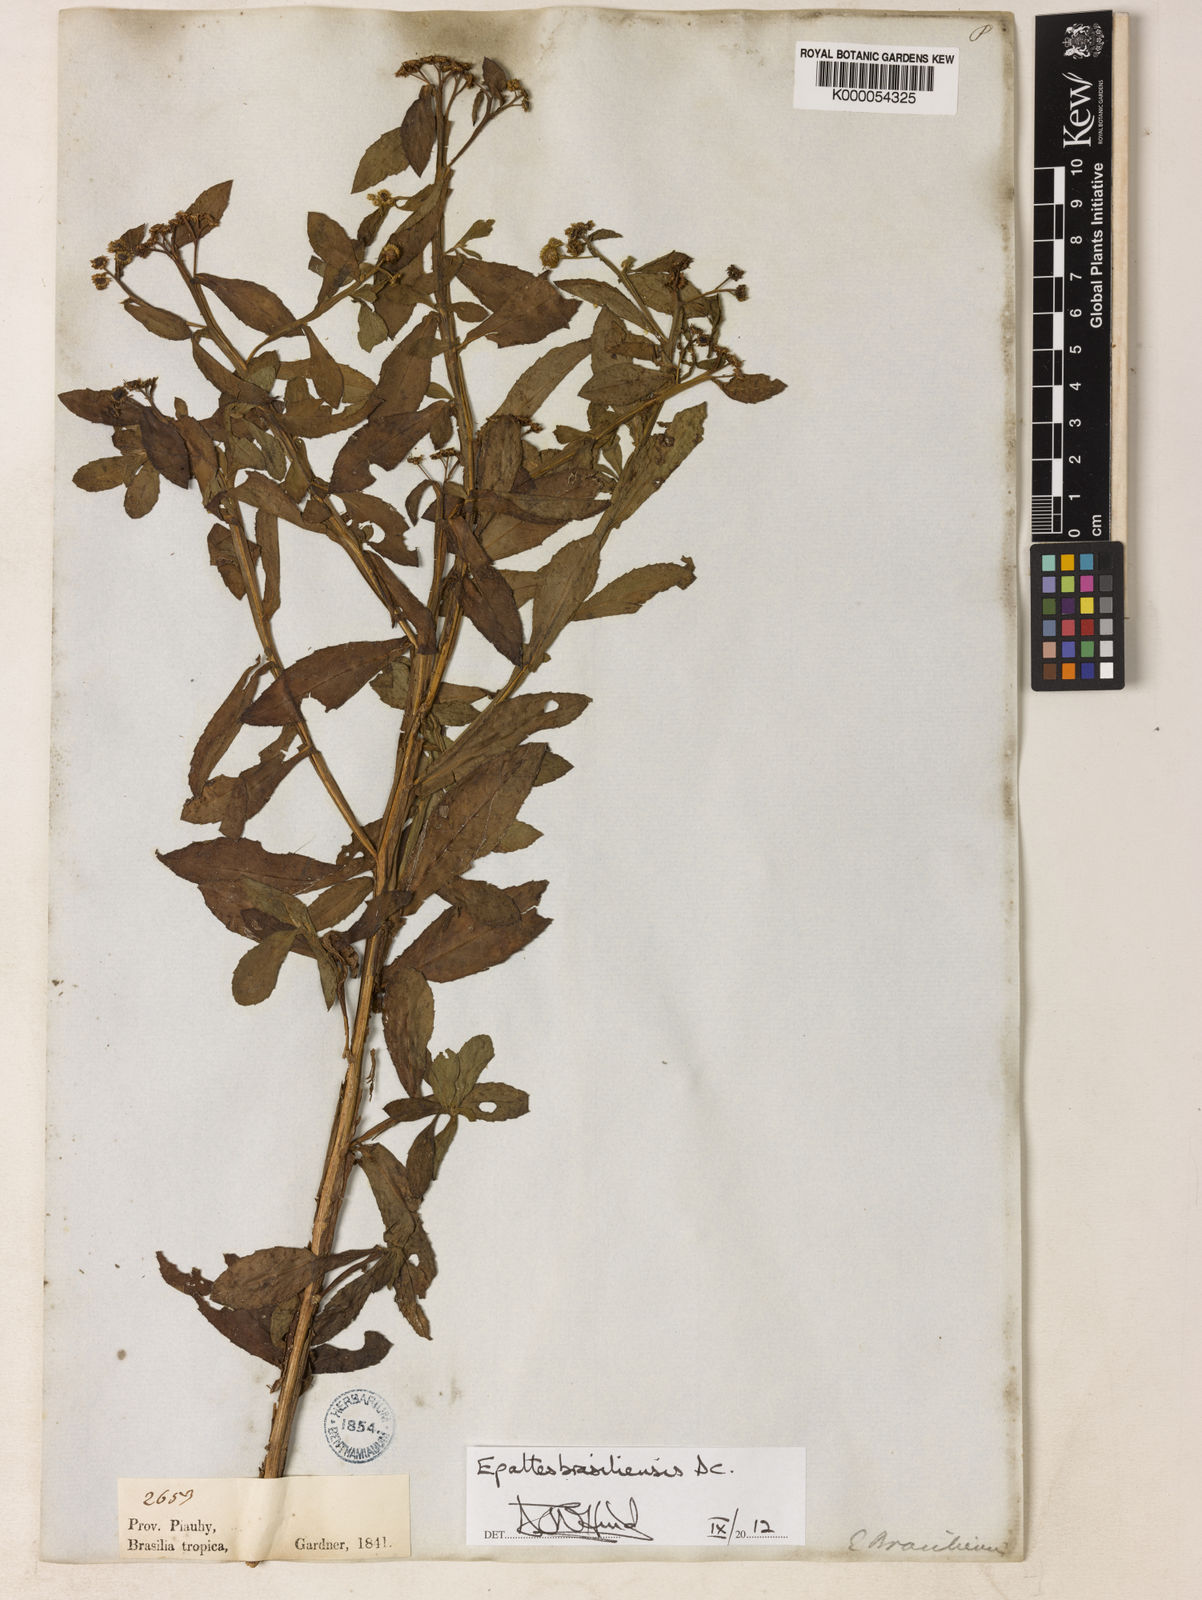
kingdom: Plantae
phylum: Tracheophyta
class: Magnoliopsida
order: Asterales
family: Asteraceae
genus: Epaltes
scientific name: Epaltes brasiliensis
